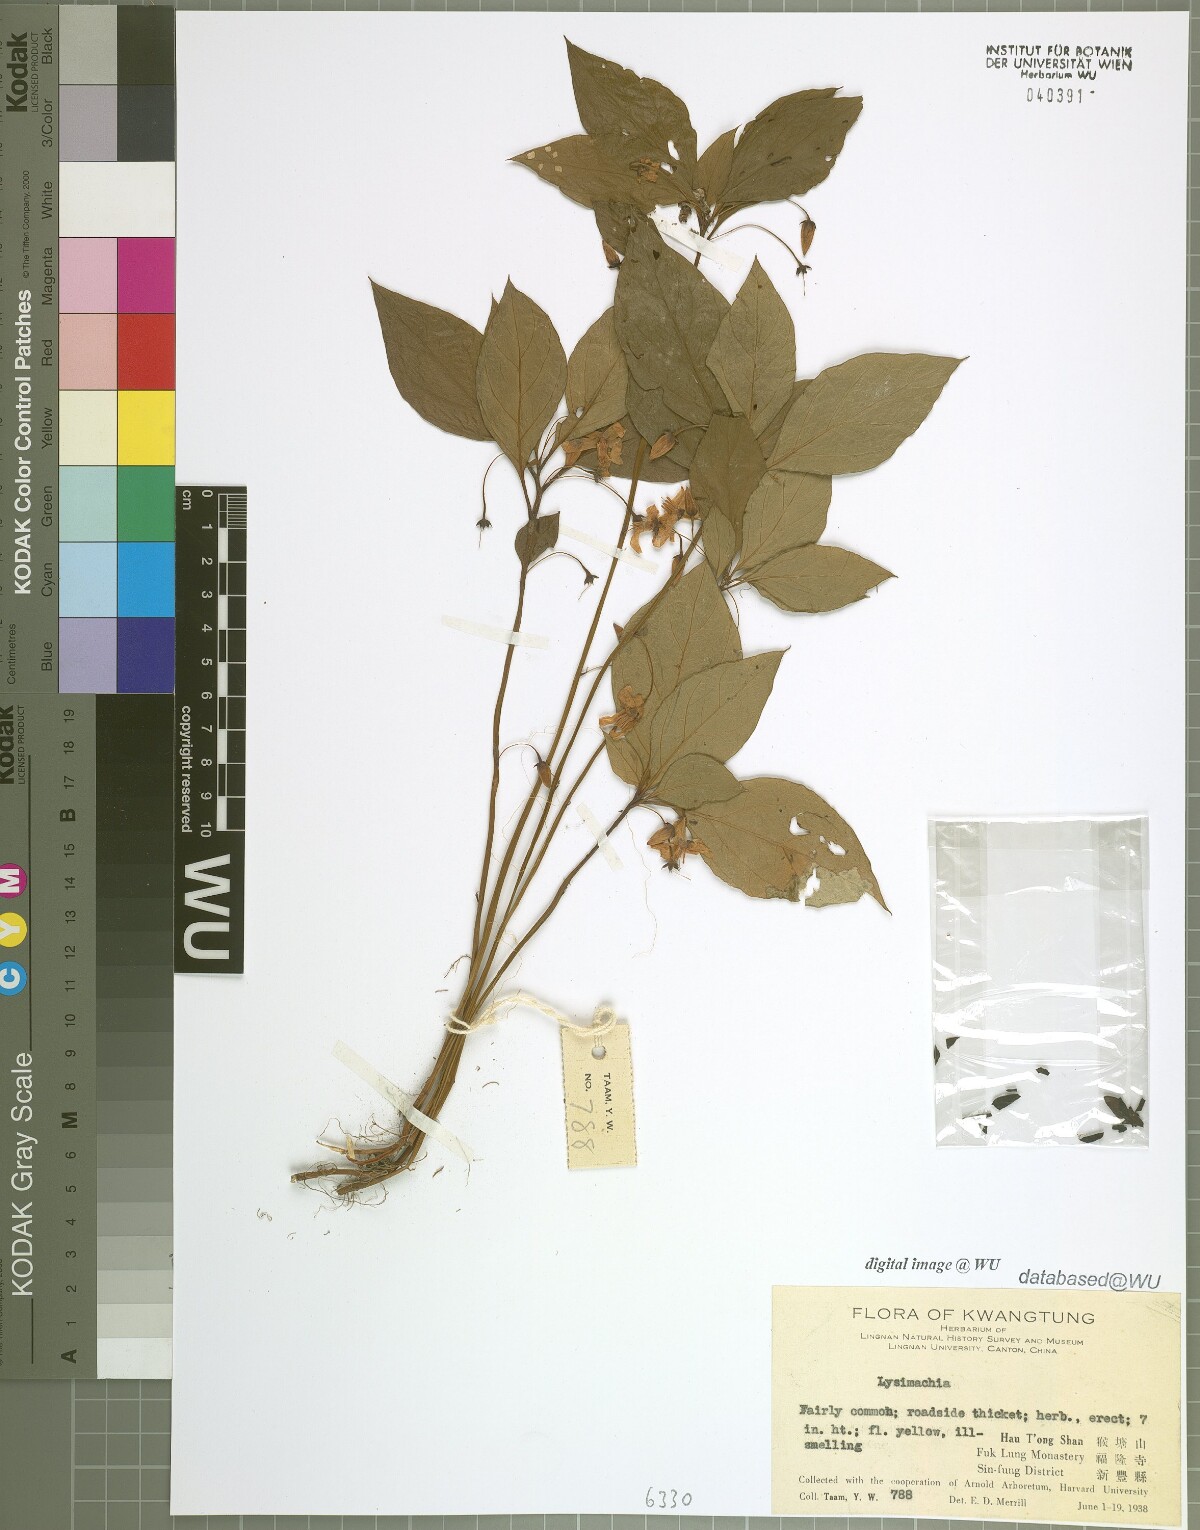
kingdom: Plantae
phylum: Tracheophyta
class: Magnoliopsida
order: Ericales
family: Primulaceae
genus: Lysimachia
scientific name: Lysimachia
